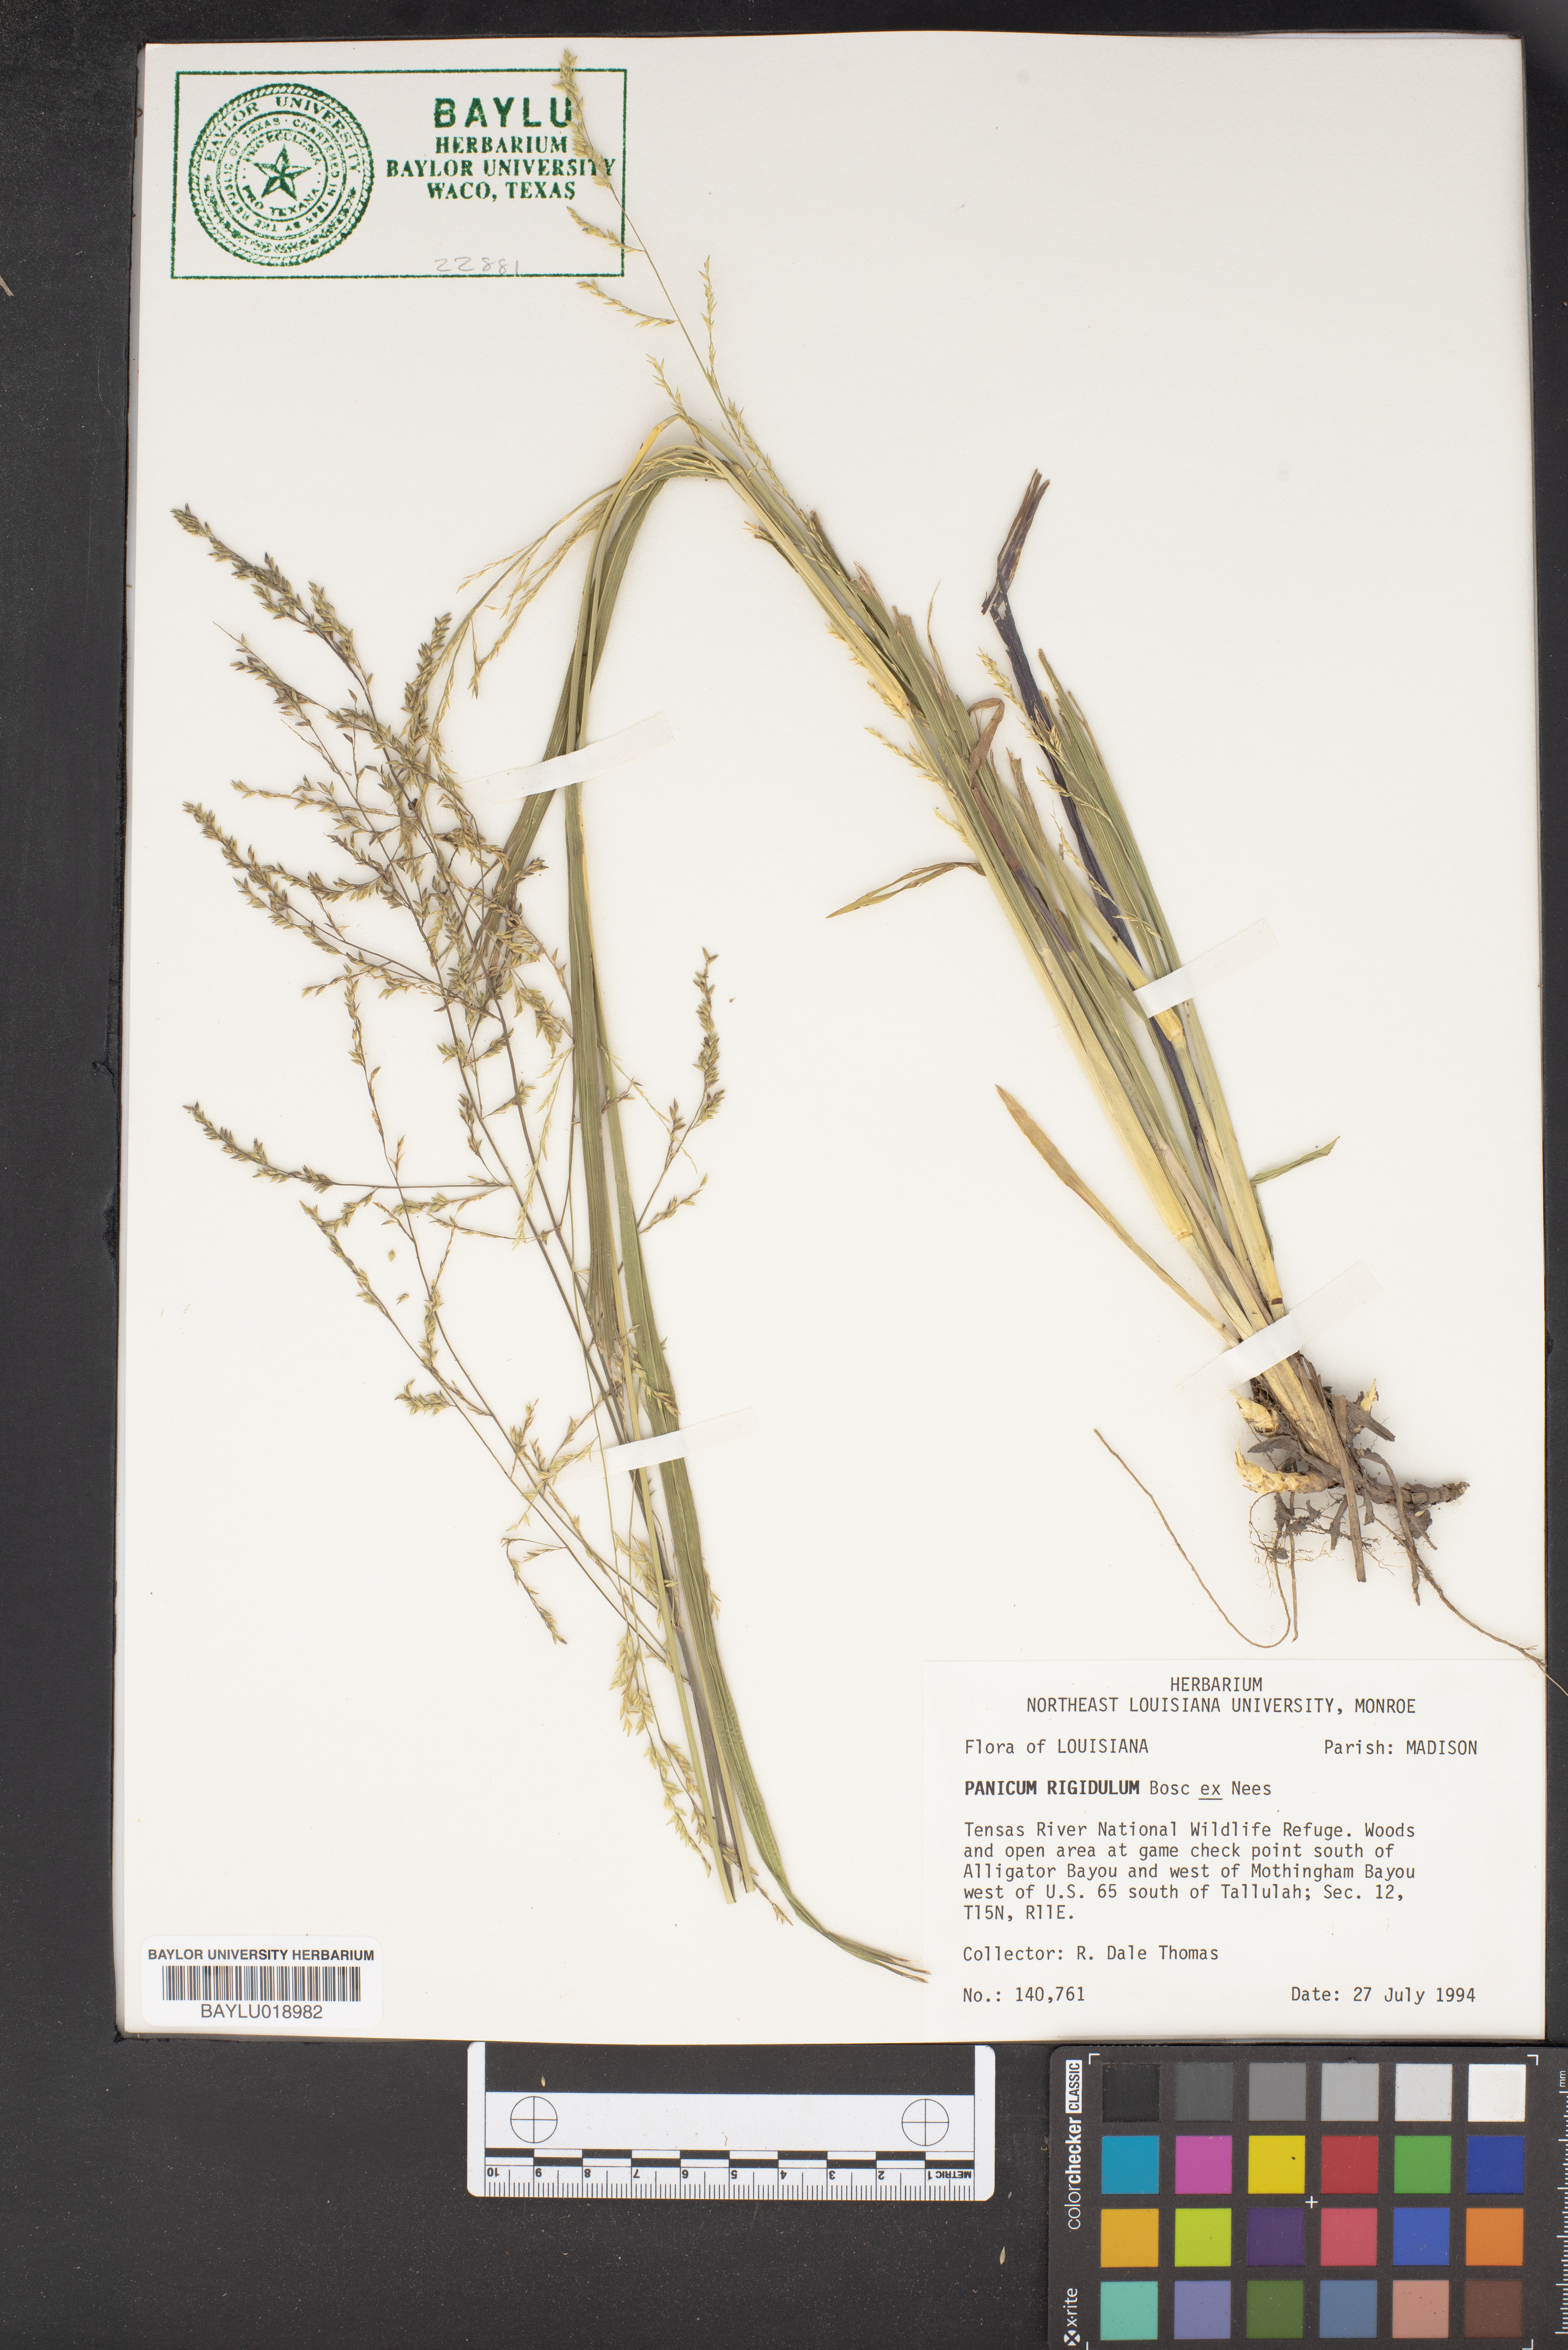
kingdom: Plantae
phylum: Tracheophyta
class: Liliopsida
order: Poales
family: Poaceae
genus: Coleataenia
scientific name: Coleataenia rigidula
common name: Redtop panicgrass
